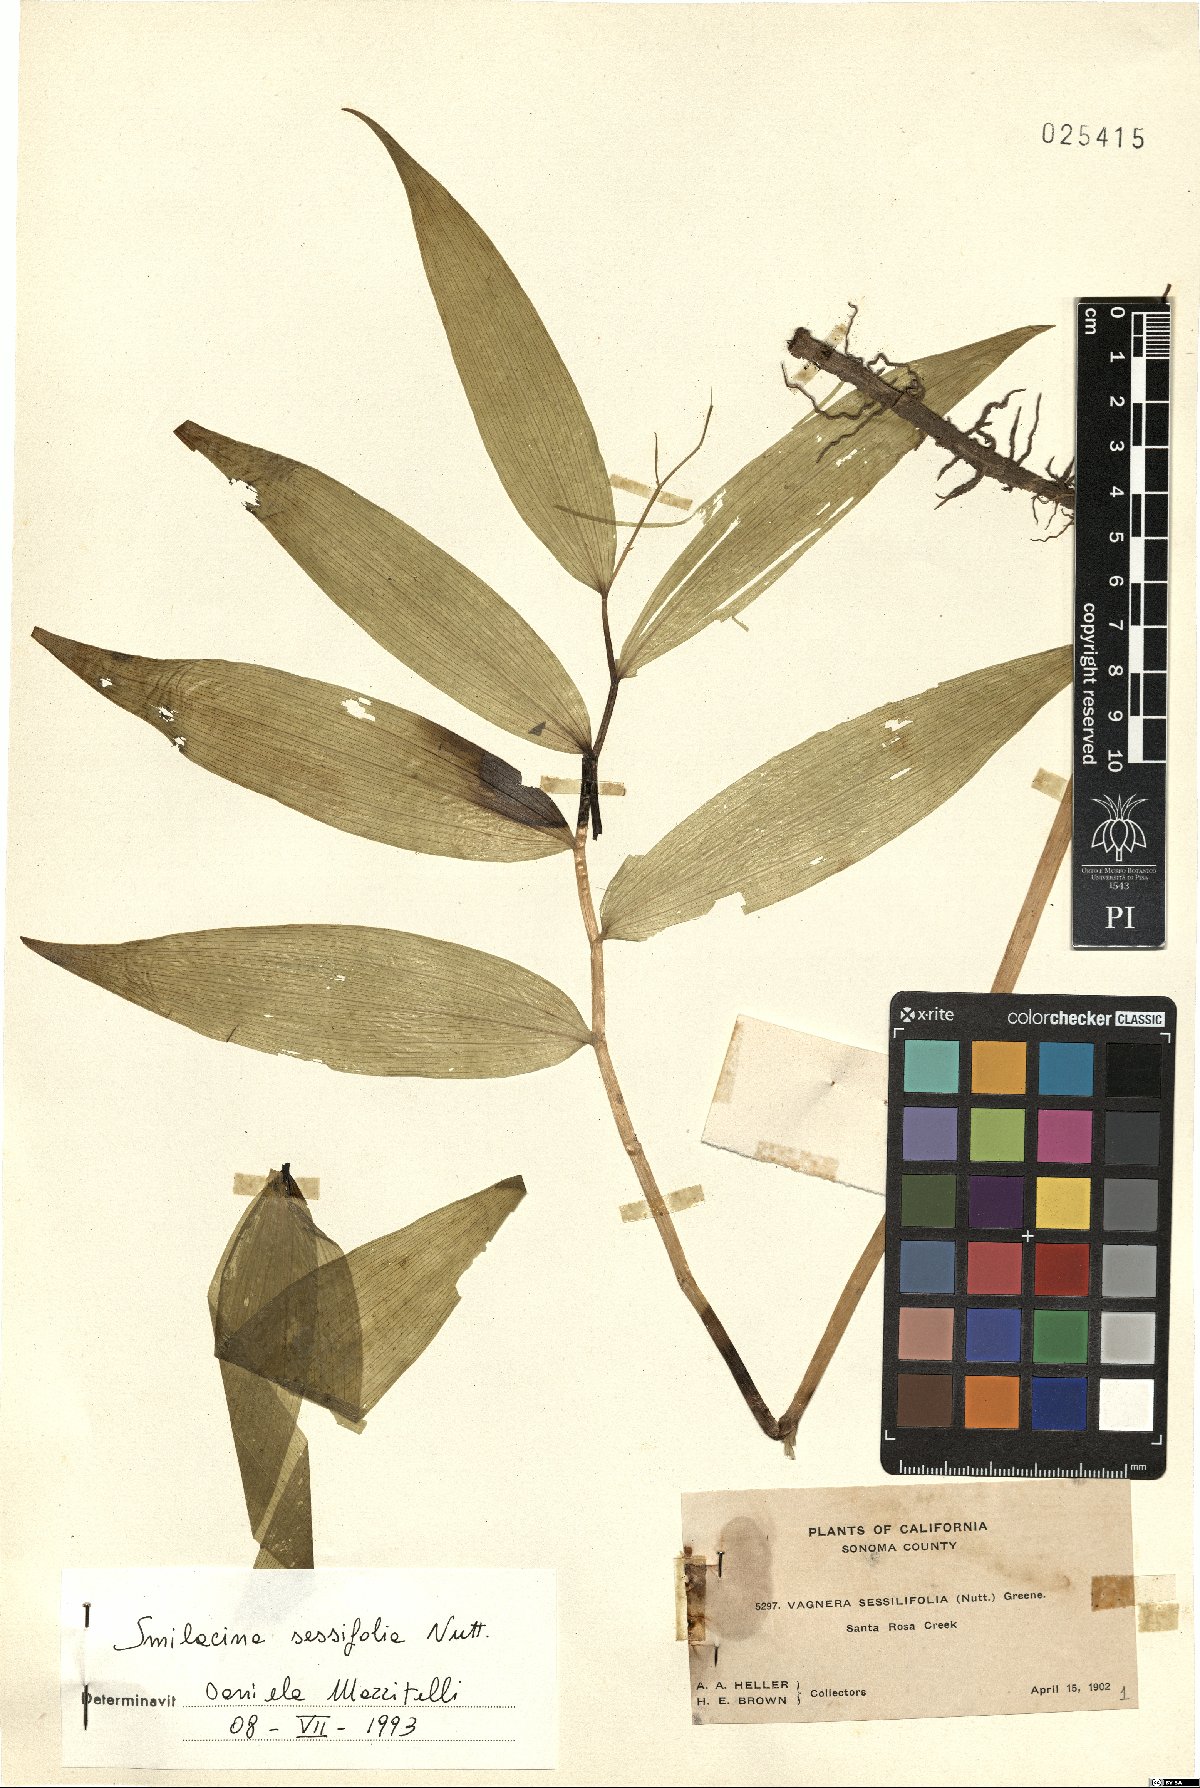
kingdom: Plantae
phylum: Tracheophyta
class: Liliopsida
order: Asparagales
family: Asparagaceae
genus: Maianthemum
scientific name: Maianthemum stellatum
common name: Little false solomon's seal
